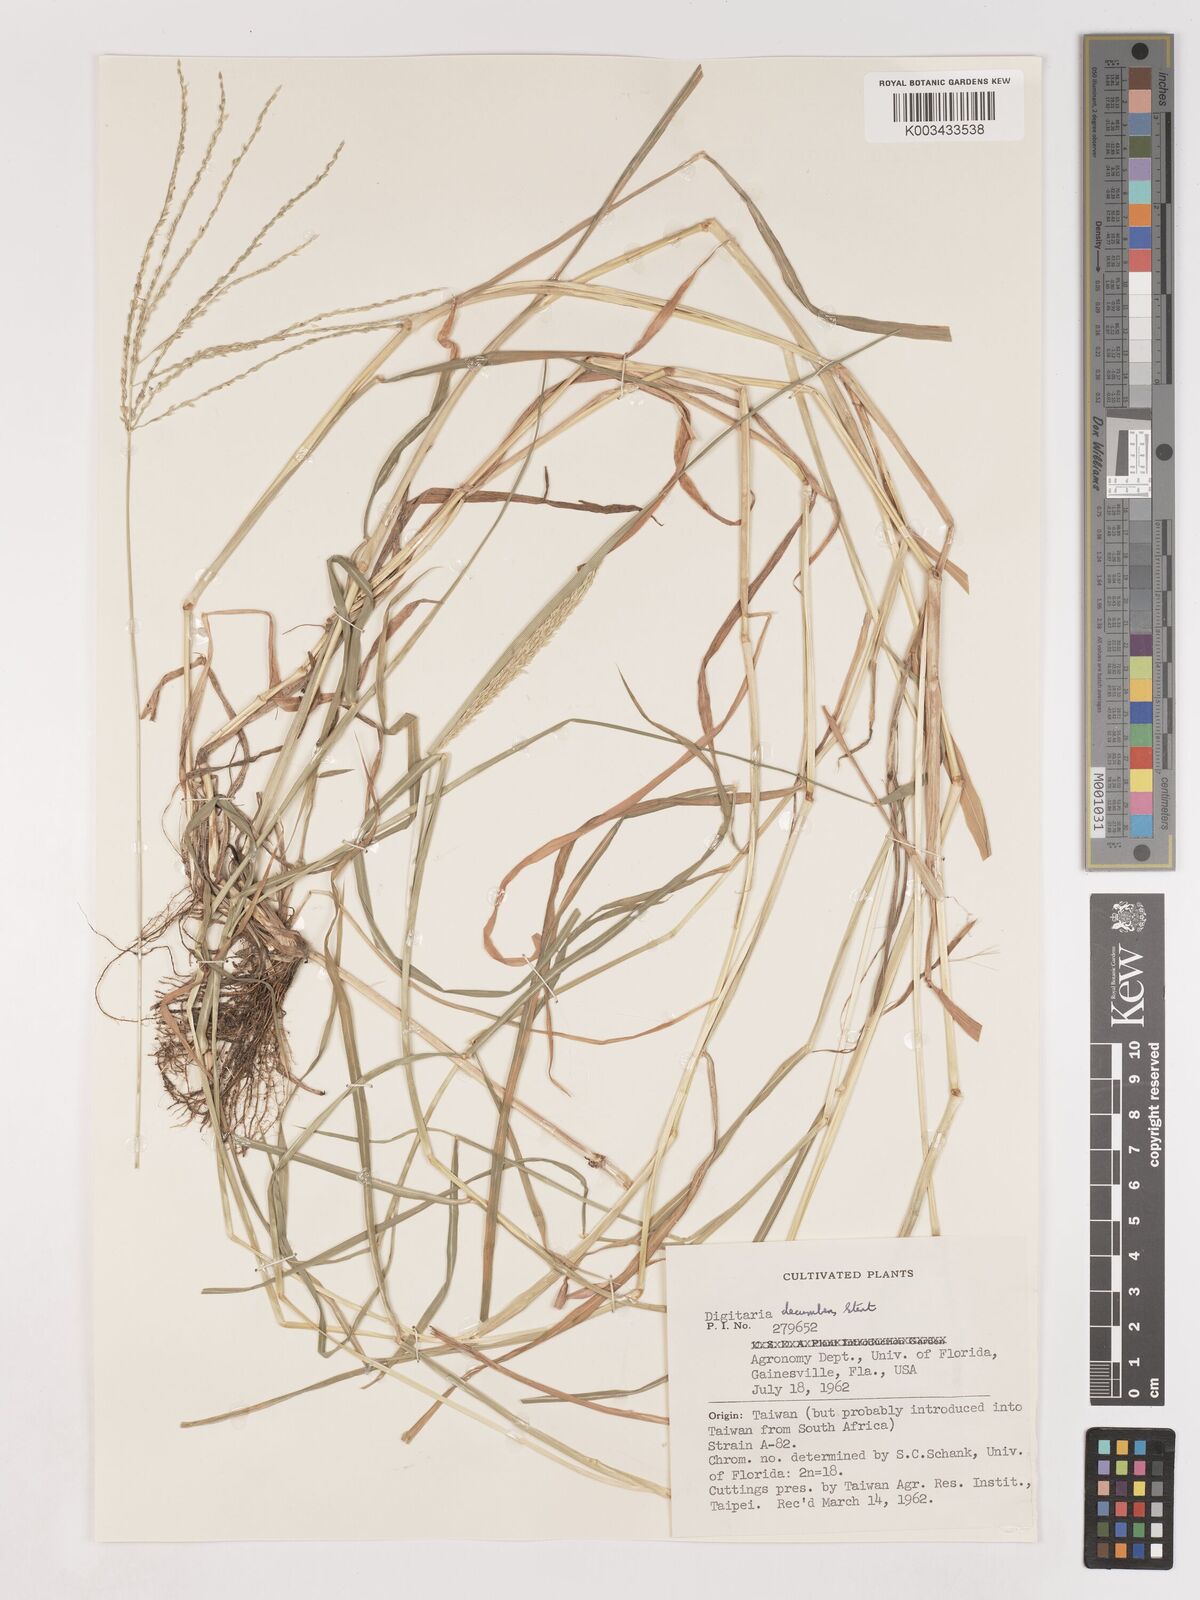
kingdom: Plantae
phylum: Tracheophyta
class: Liliopsida
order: Poales
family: Poaceae
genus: Digitaria
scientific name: Digitaria eriantha
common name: Digitgrass
